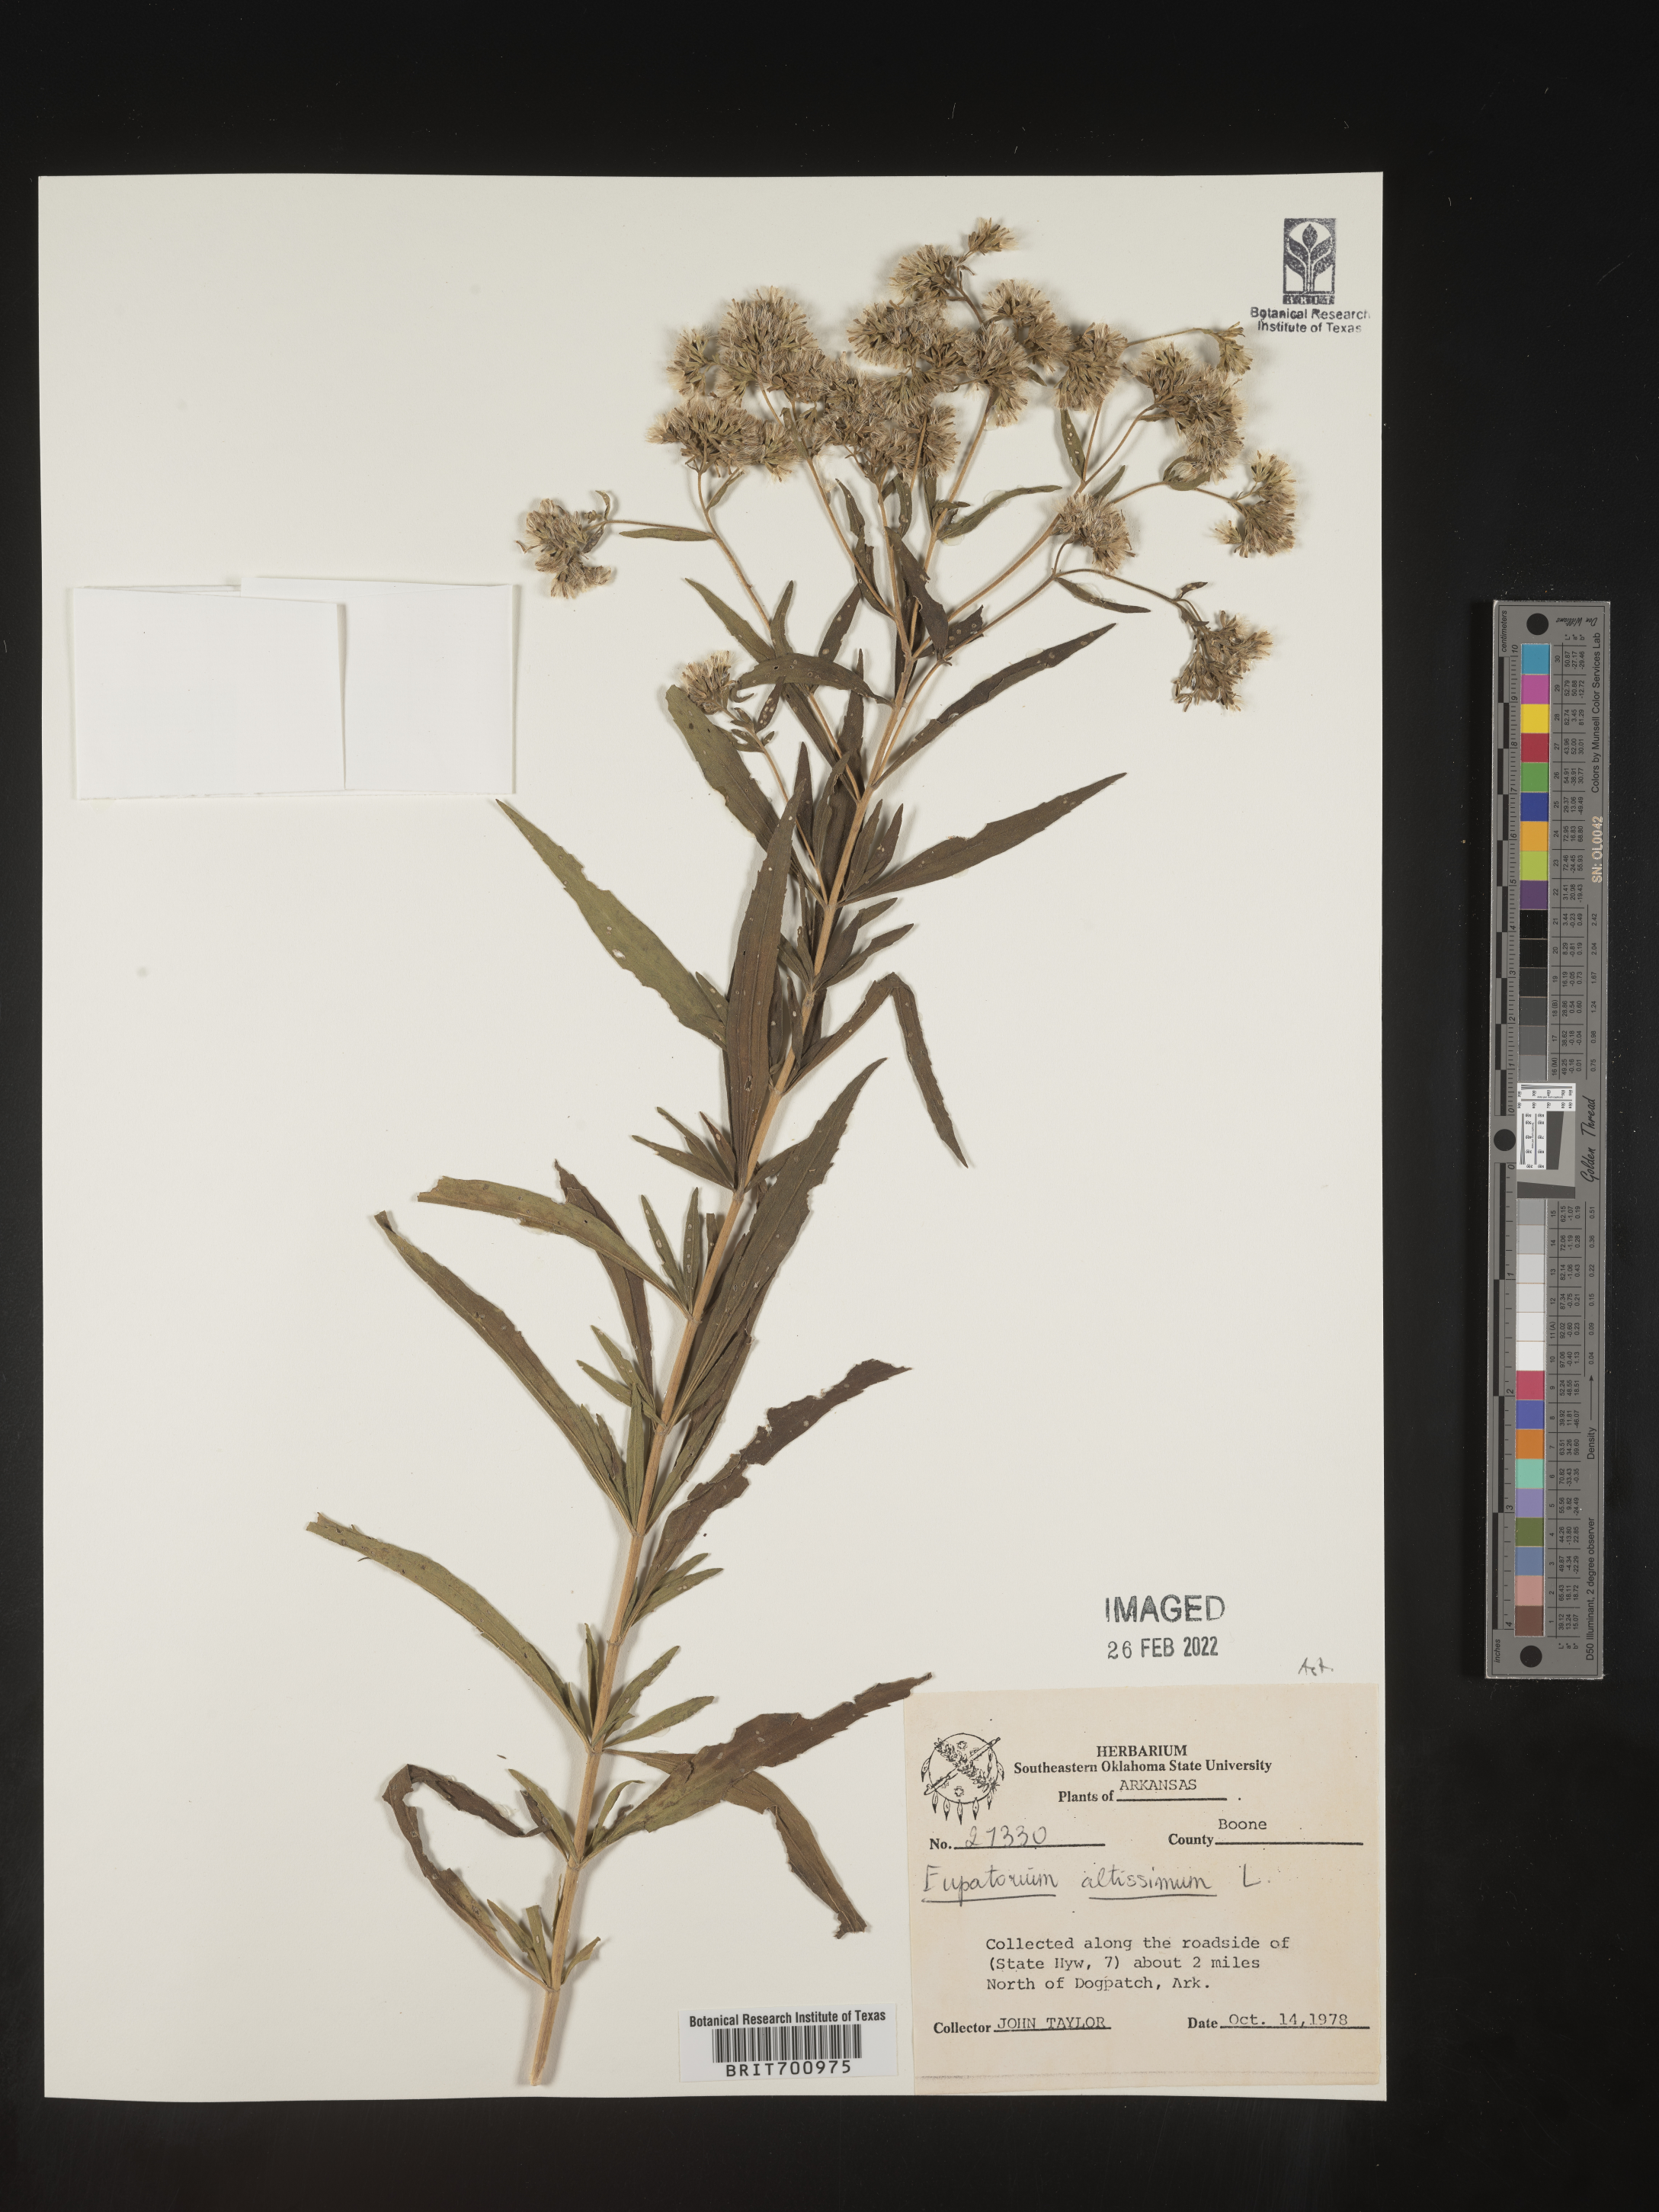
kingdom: Plantae
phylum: Tracheophyta
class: Magnoliopsida
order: Asterales
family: Asteraceae
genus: Eupatorium
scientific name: Eupatorium altissimum
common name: Tall thoroughwort
